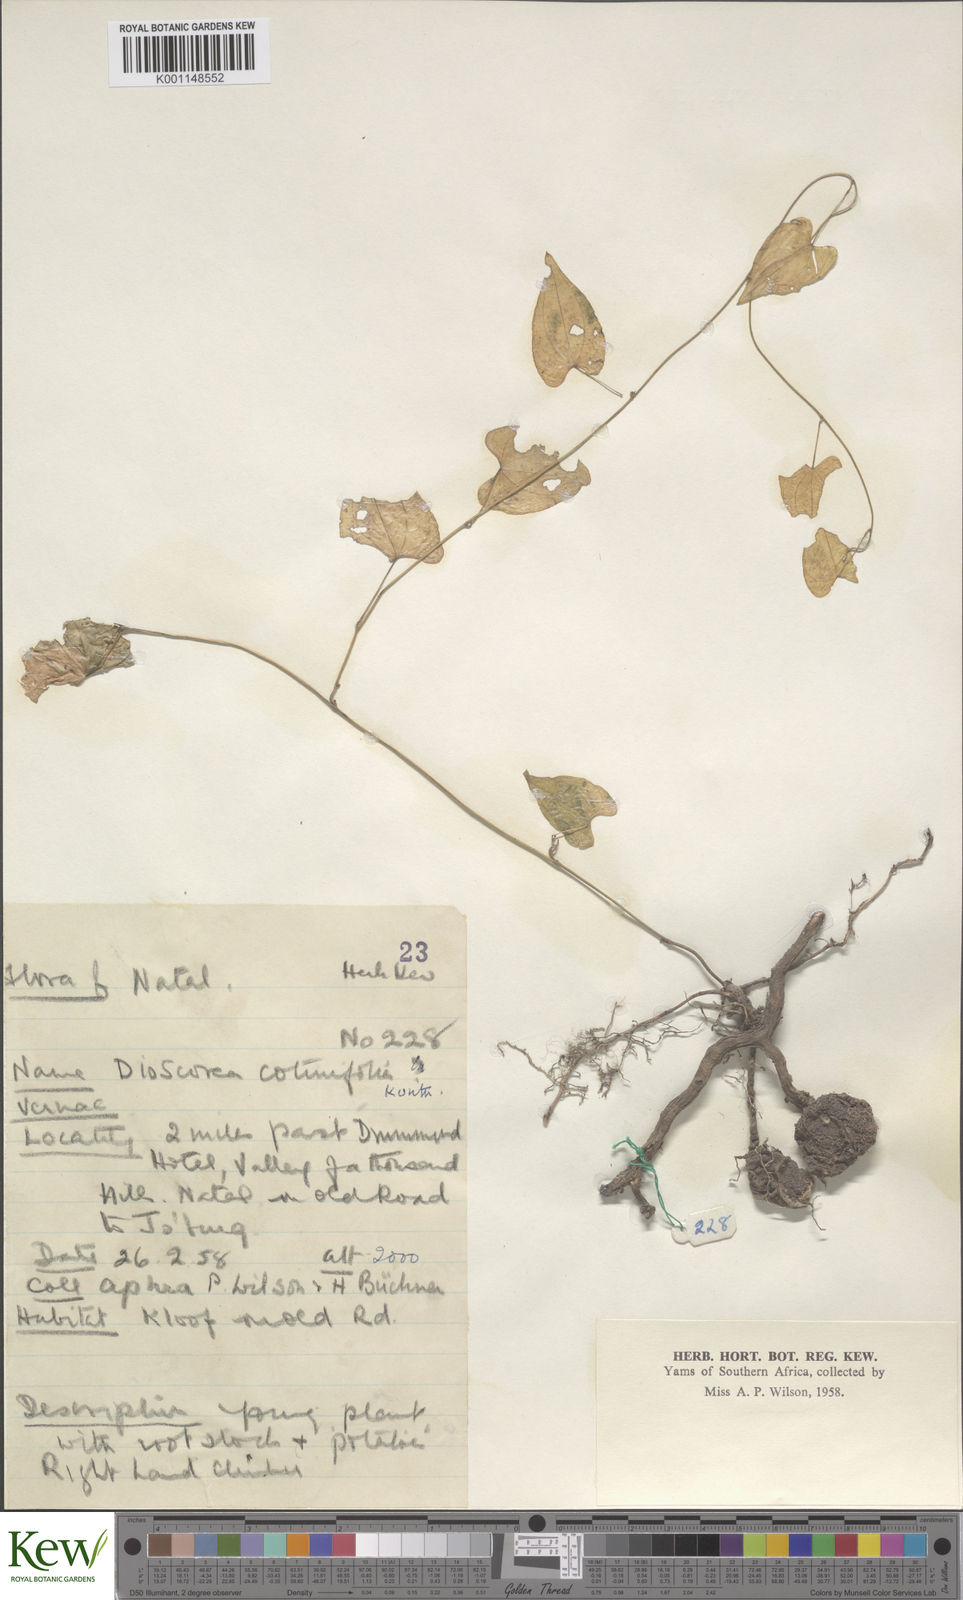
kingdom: Plantae
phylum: Tracheophyta
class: Liliopsida
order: Dioscoreales
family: Dioscoreaceae
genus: Dioscorea
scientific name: Dioscorea cotinifolia
